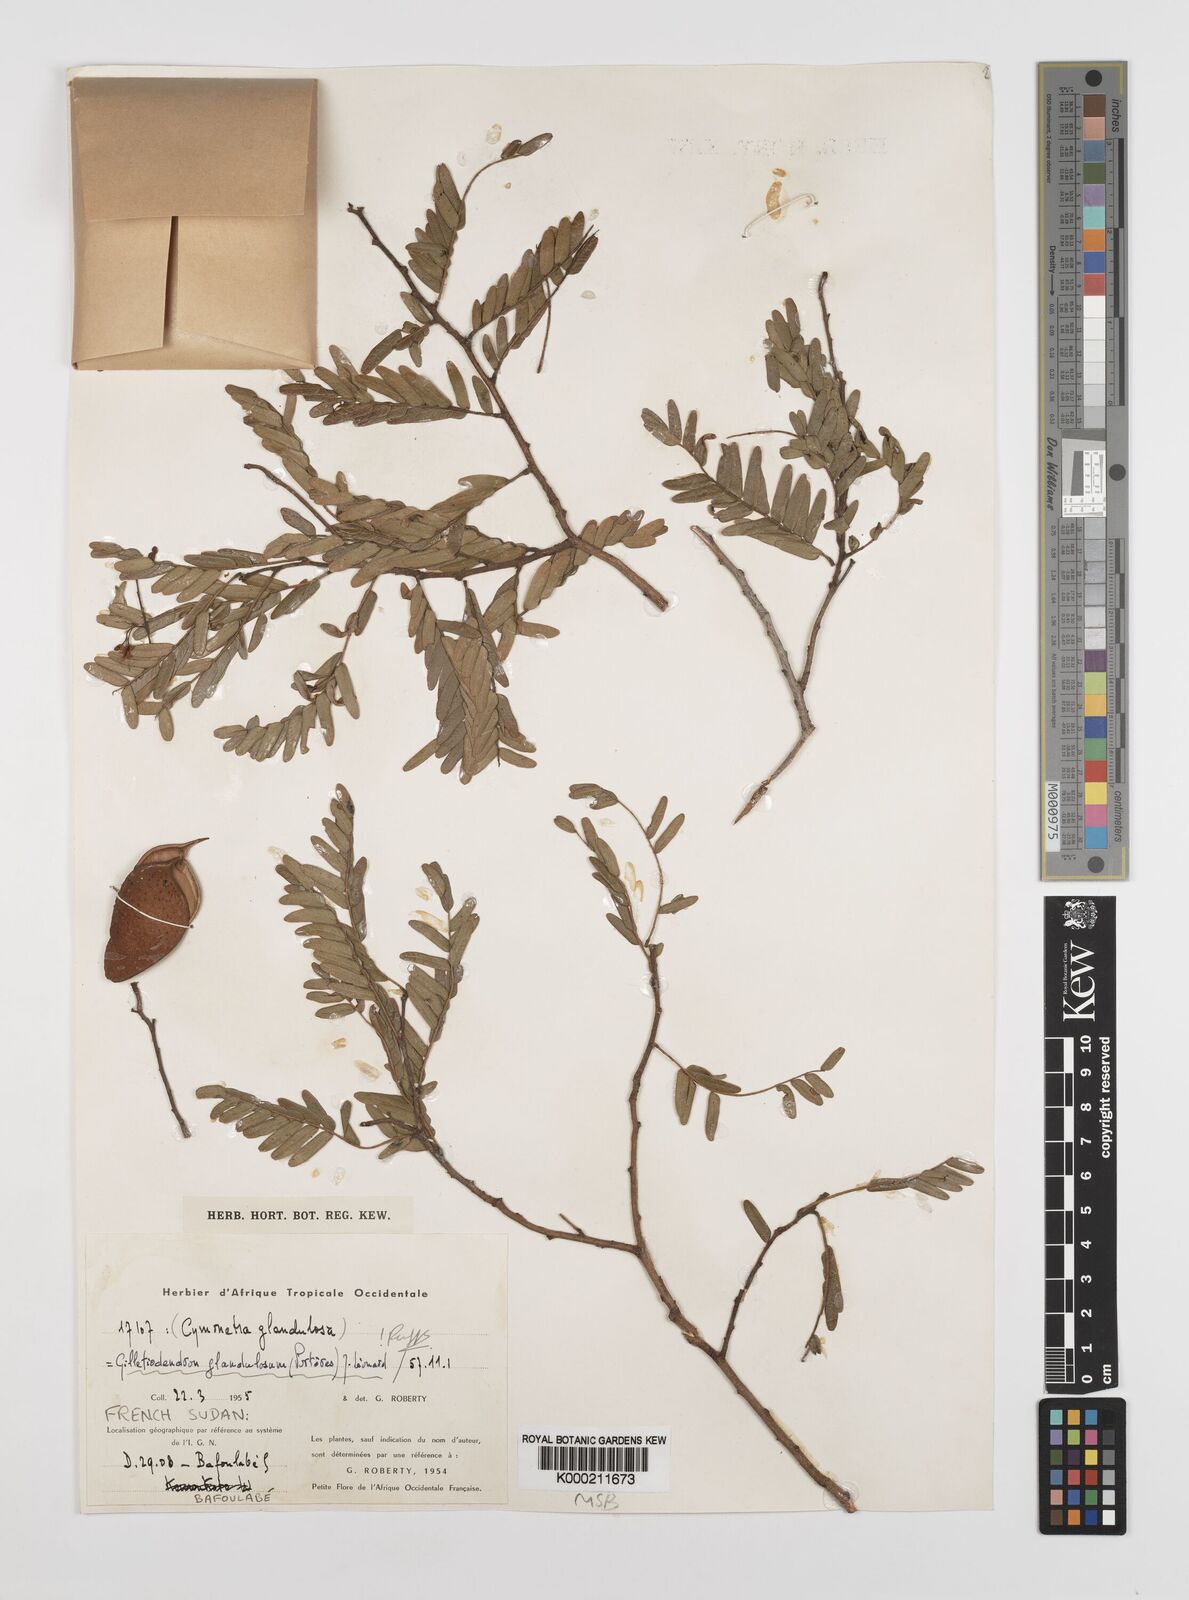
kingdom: Plantae
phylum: Tracheophyta
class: Magnoliopsida
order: Fabales
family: Fabaceae
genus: Gilletiodendron
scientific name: Gilletiodendron
